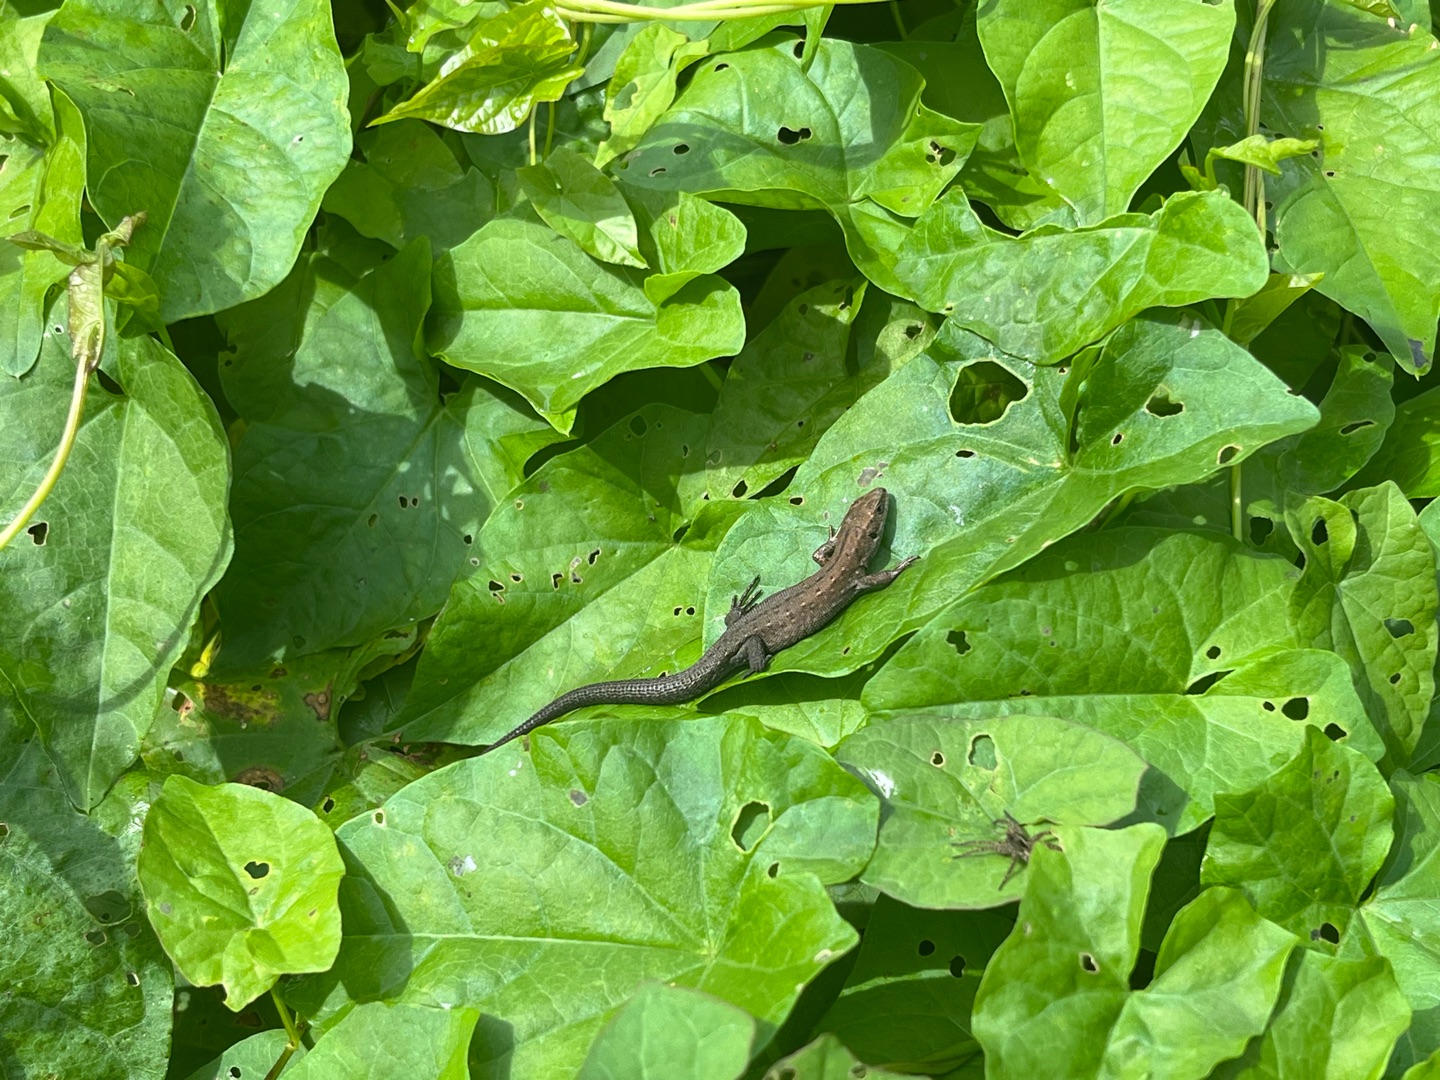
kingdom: Animalia
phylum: Chordata
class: Squamata
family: Lacertidae
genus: Zootoca
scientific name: Zootoca vivipara
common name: Skovfirben
